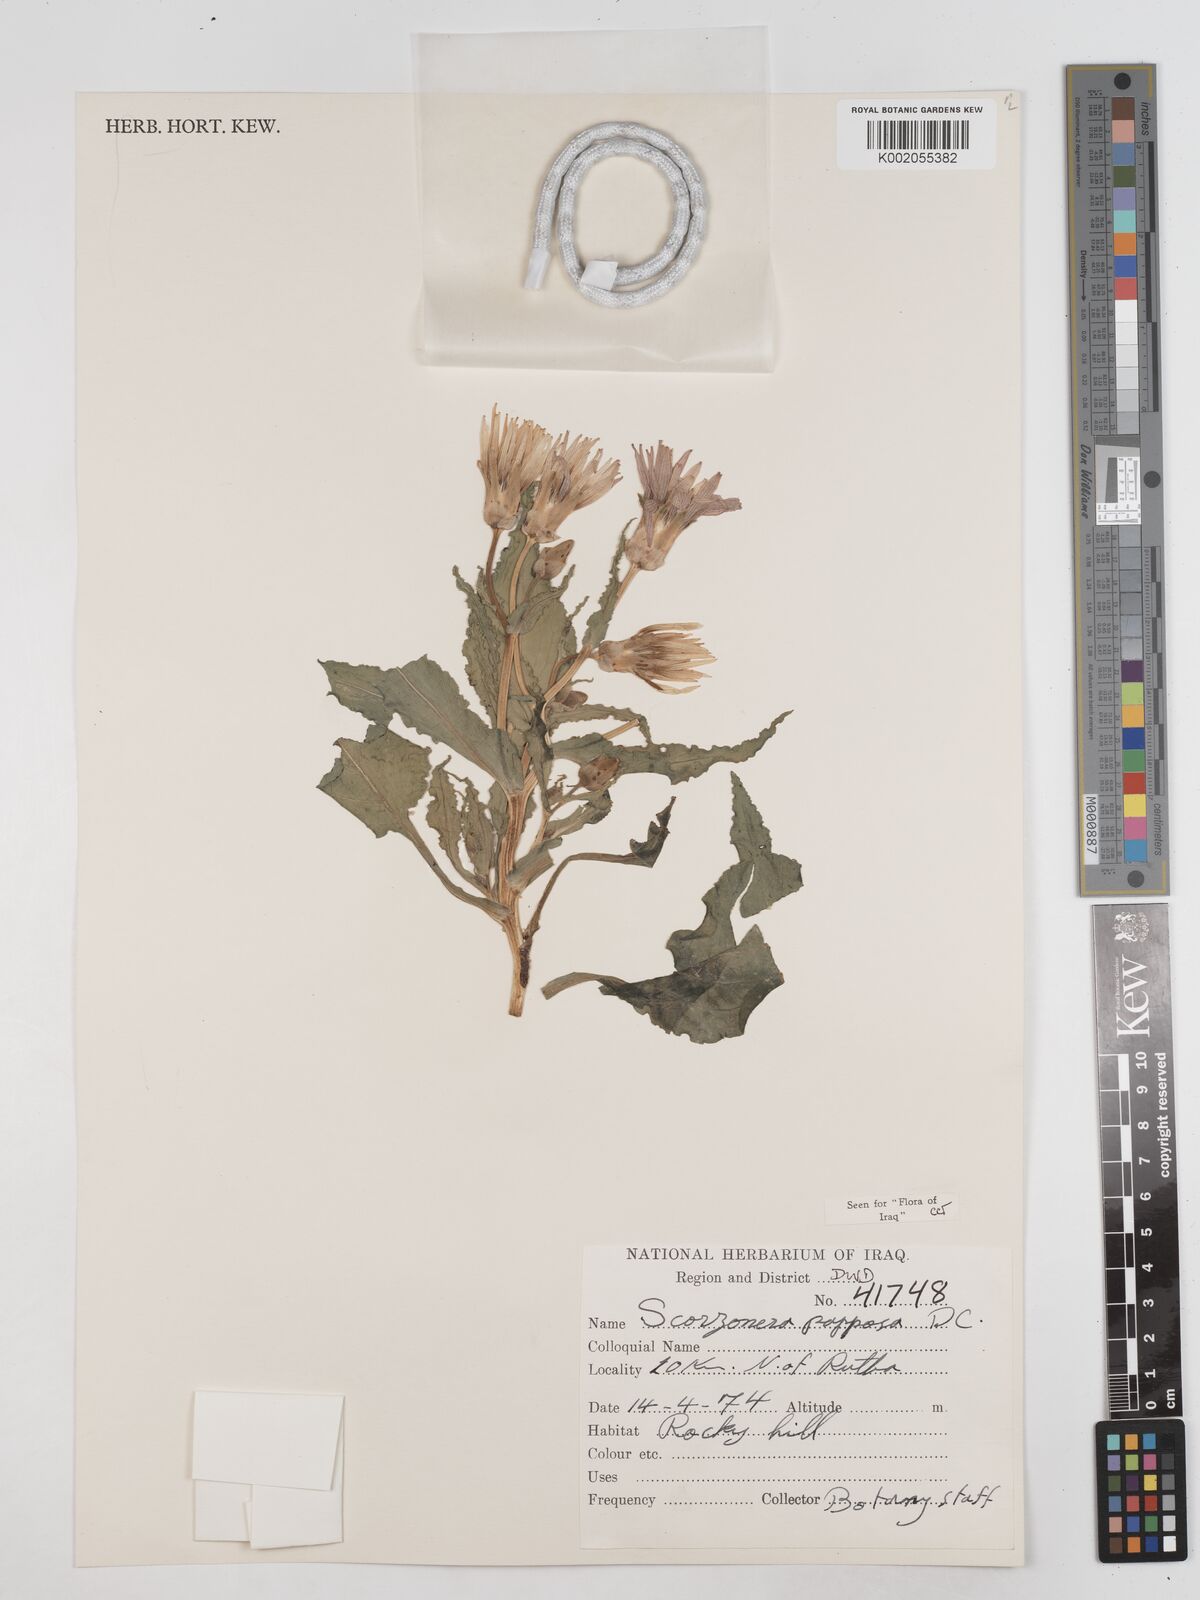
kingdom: Plantae
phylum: Tracheophyta
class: Magnoliopsida
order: Asterales
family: Asteraceae
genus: Pseudopodospermum
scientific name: Pseudopodospermum papposum
